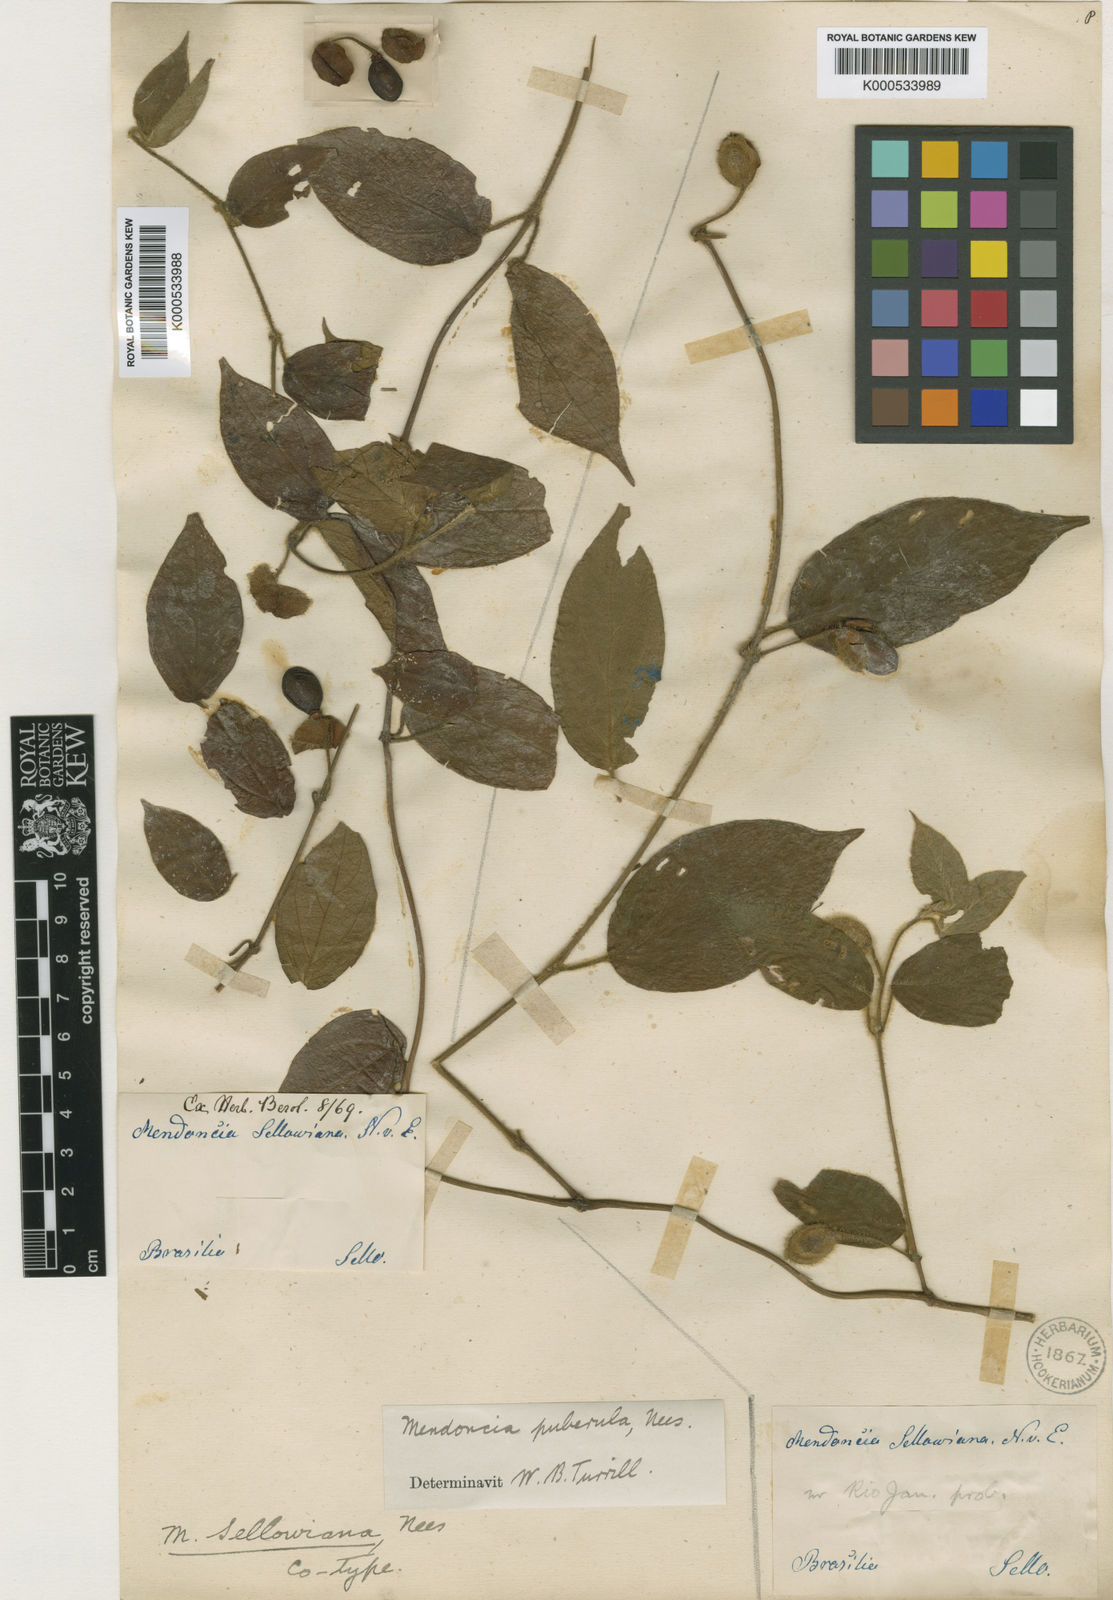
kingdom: Plantae
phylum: Tracheophyta
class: Magnoliopsida
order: Lamiales
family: Acanthaceae
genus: Mendoncia
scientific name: Mendoncia
